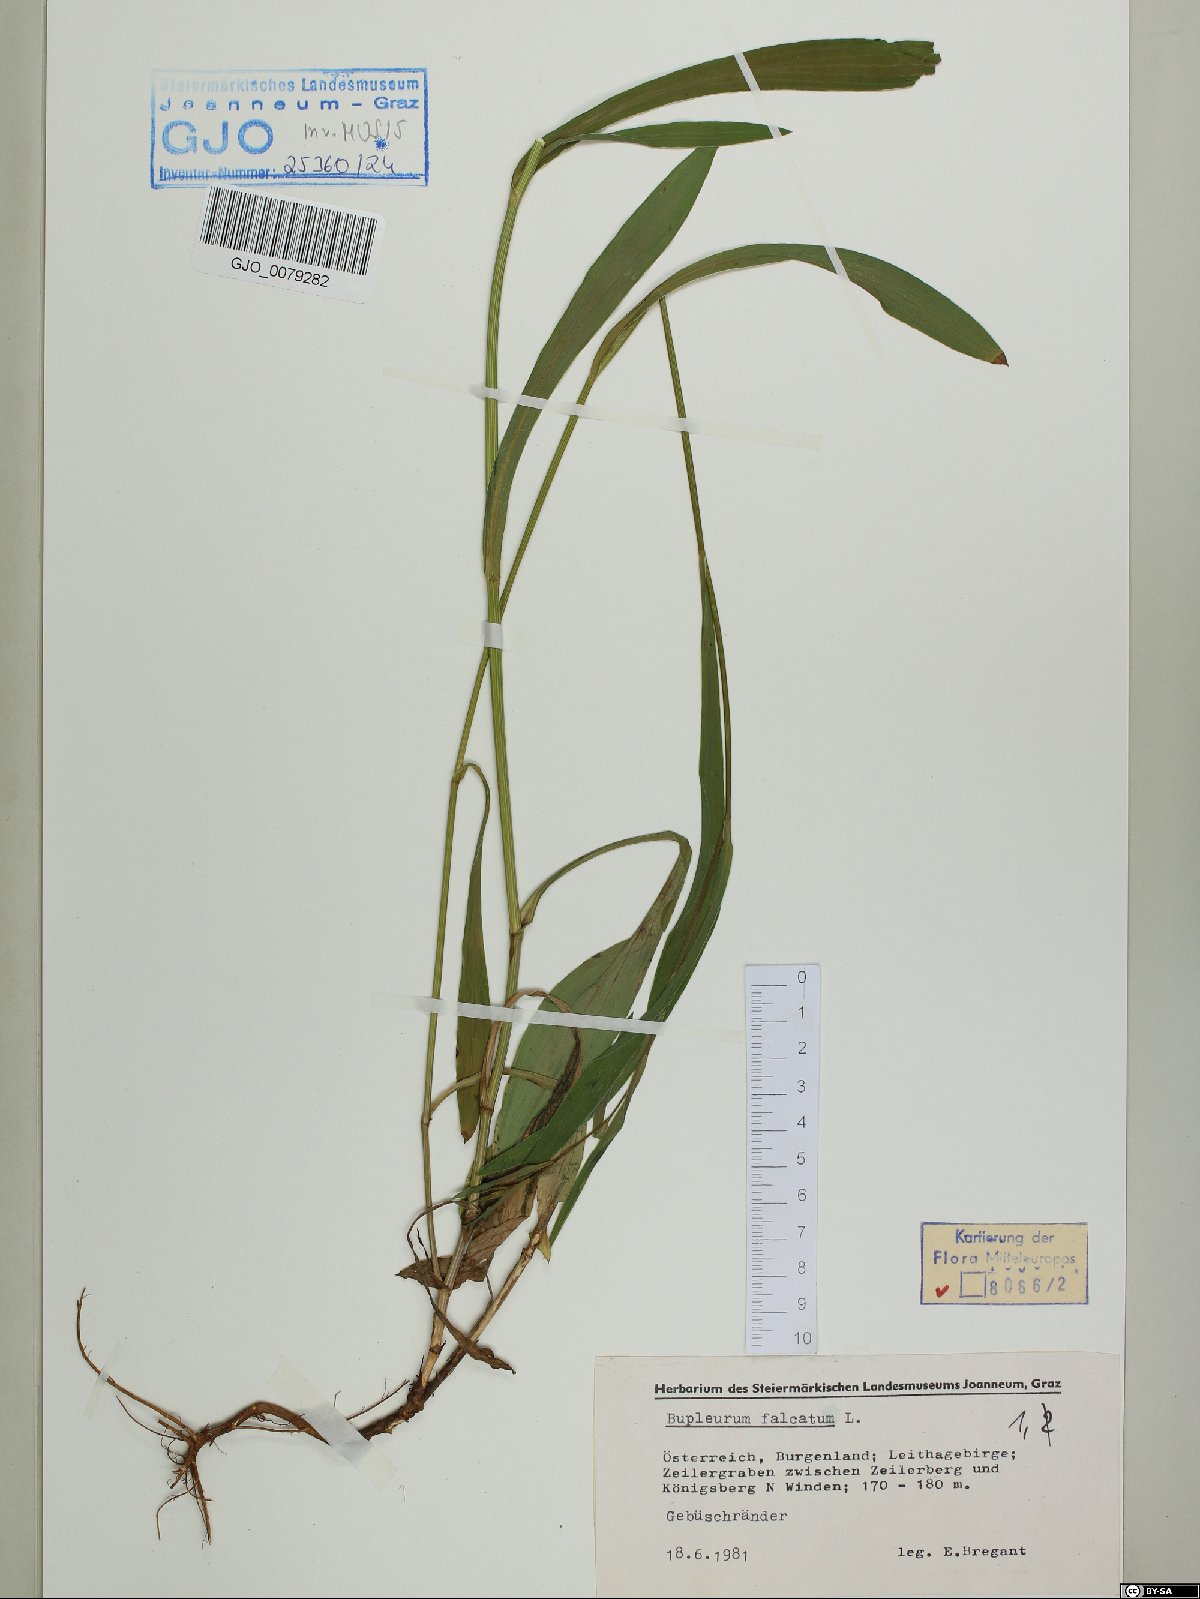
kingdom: Plantae
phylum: Tracheophyta
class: Magnoliopsida
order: Apiales
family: Apiaceae
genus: Bupleurum
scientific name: Bupleurum falcatum
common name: Sickle-leaved hare's-ear
